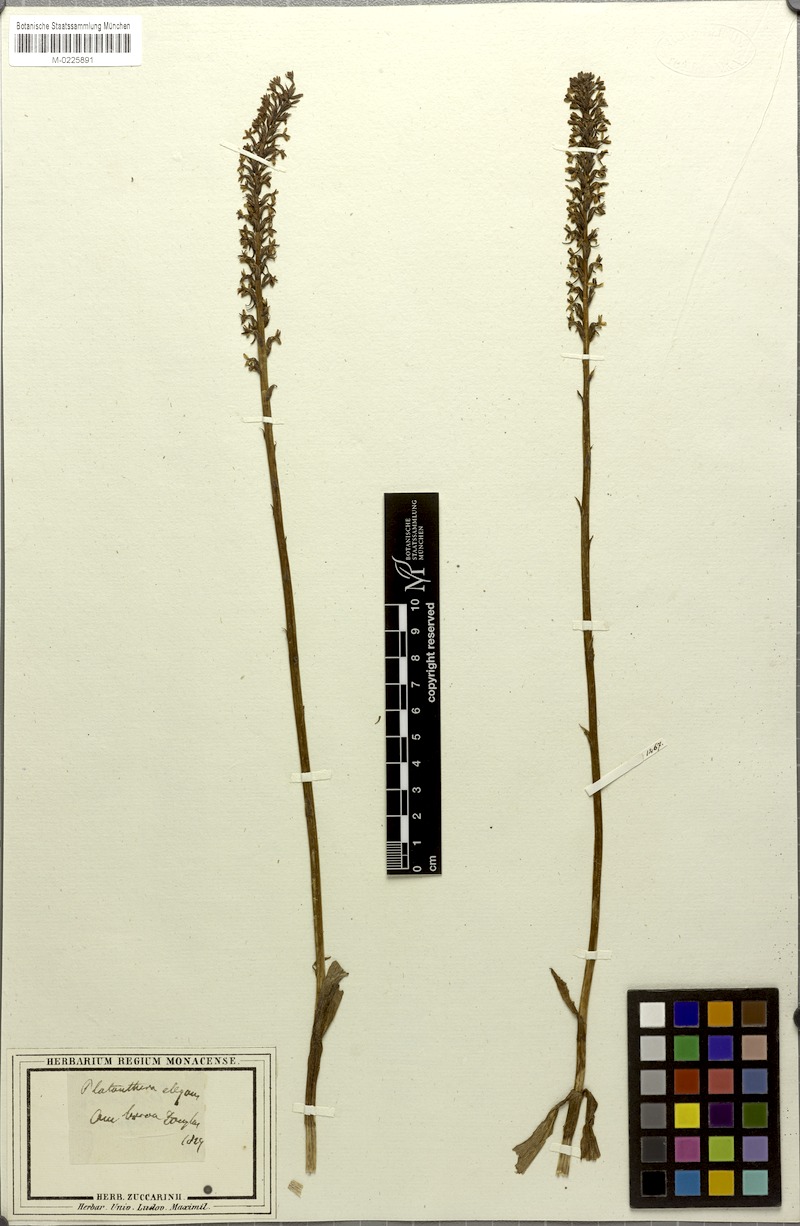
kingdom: Plantae
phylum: Tracheophyta
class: Liliopsida
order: Asparagales
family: Orchidaceae
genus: Platanthera
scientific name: Platanthera elegans
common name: Coast piperia
